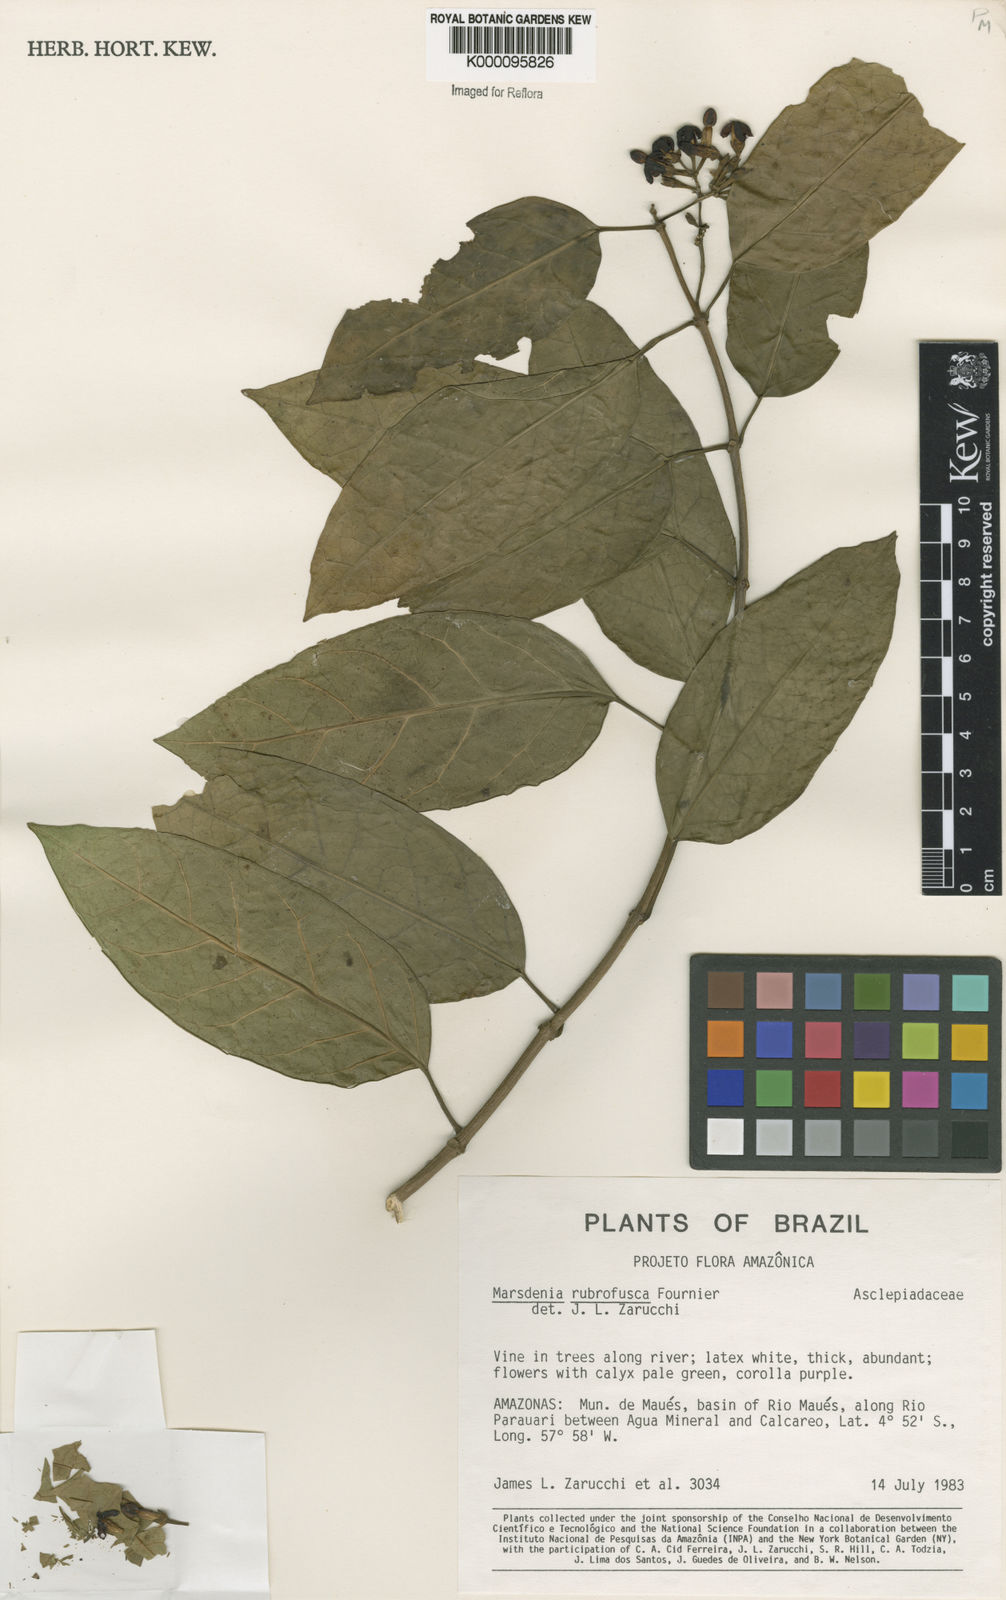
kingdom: Plantae
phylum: Tracheophyta
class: Magnoliopsida
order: Gentianales
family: Apocynaceae
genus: Ruehssia
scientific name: Ruehssia rubrofusca
